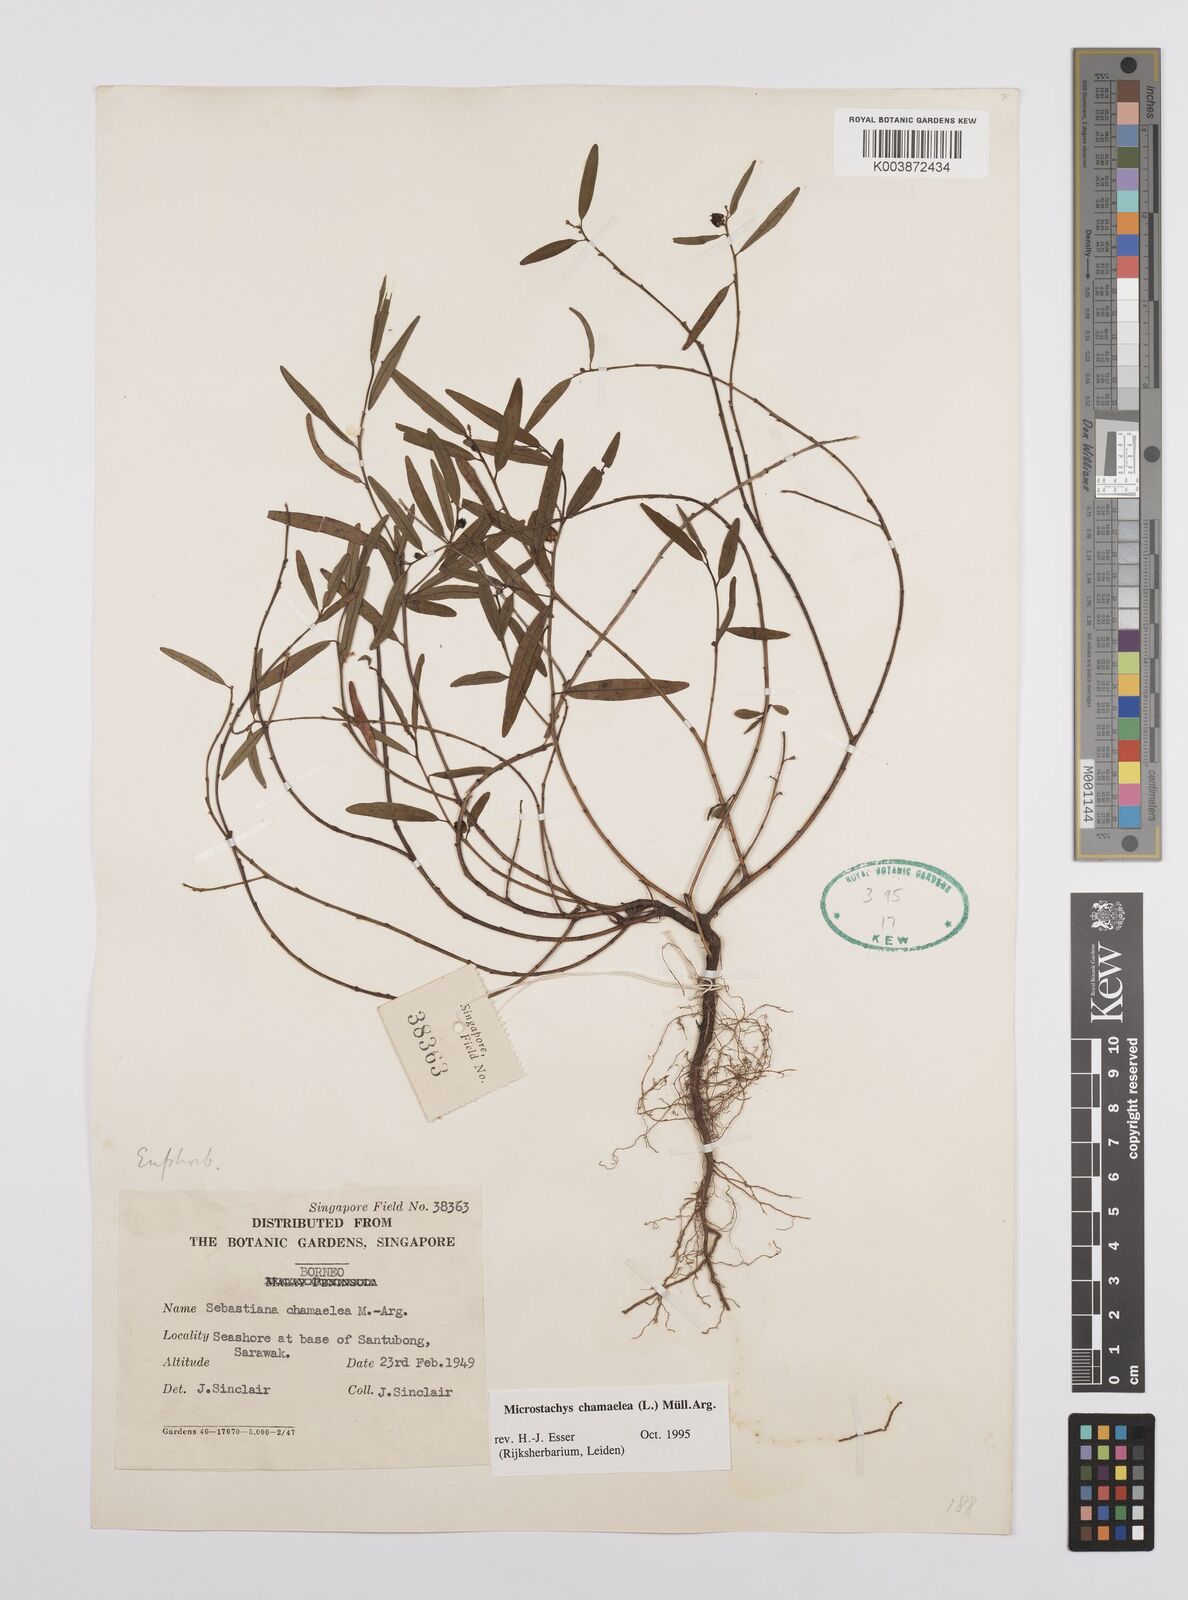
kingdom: Plantae
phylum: Tracheophyta
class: Magnoliopsida
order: Malpighiales
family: Euphorbiaceae
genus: Microstachys
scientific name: Microstachys chamaelea
